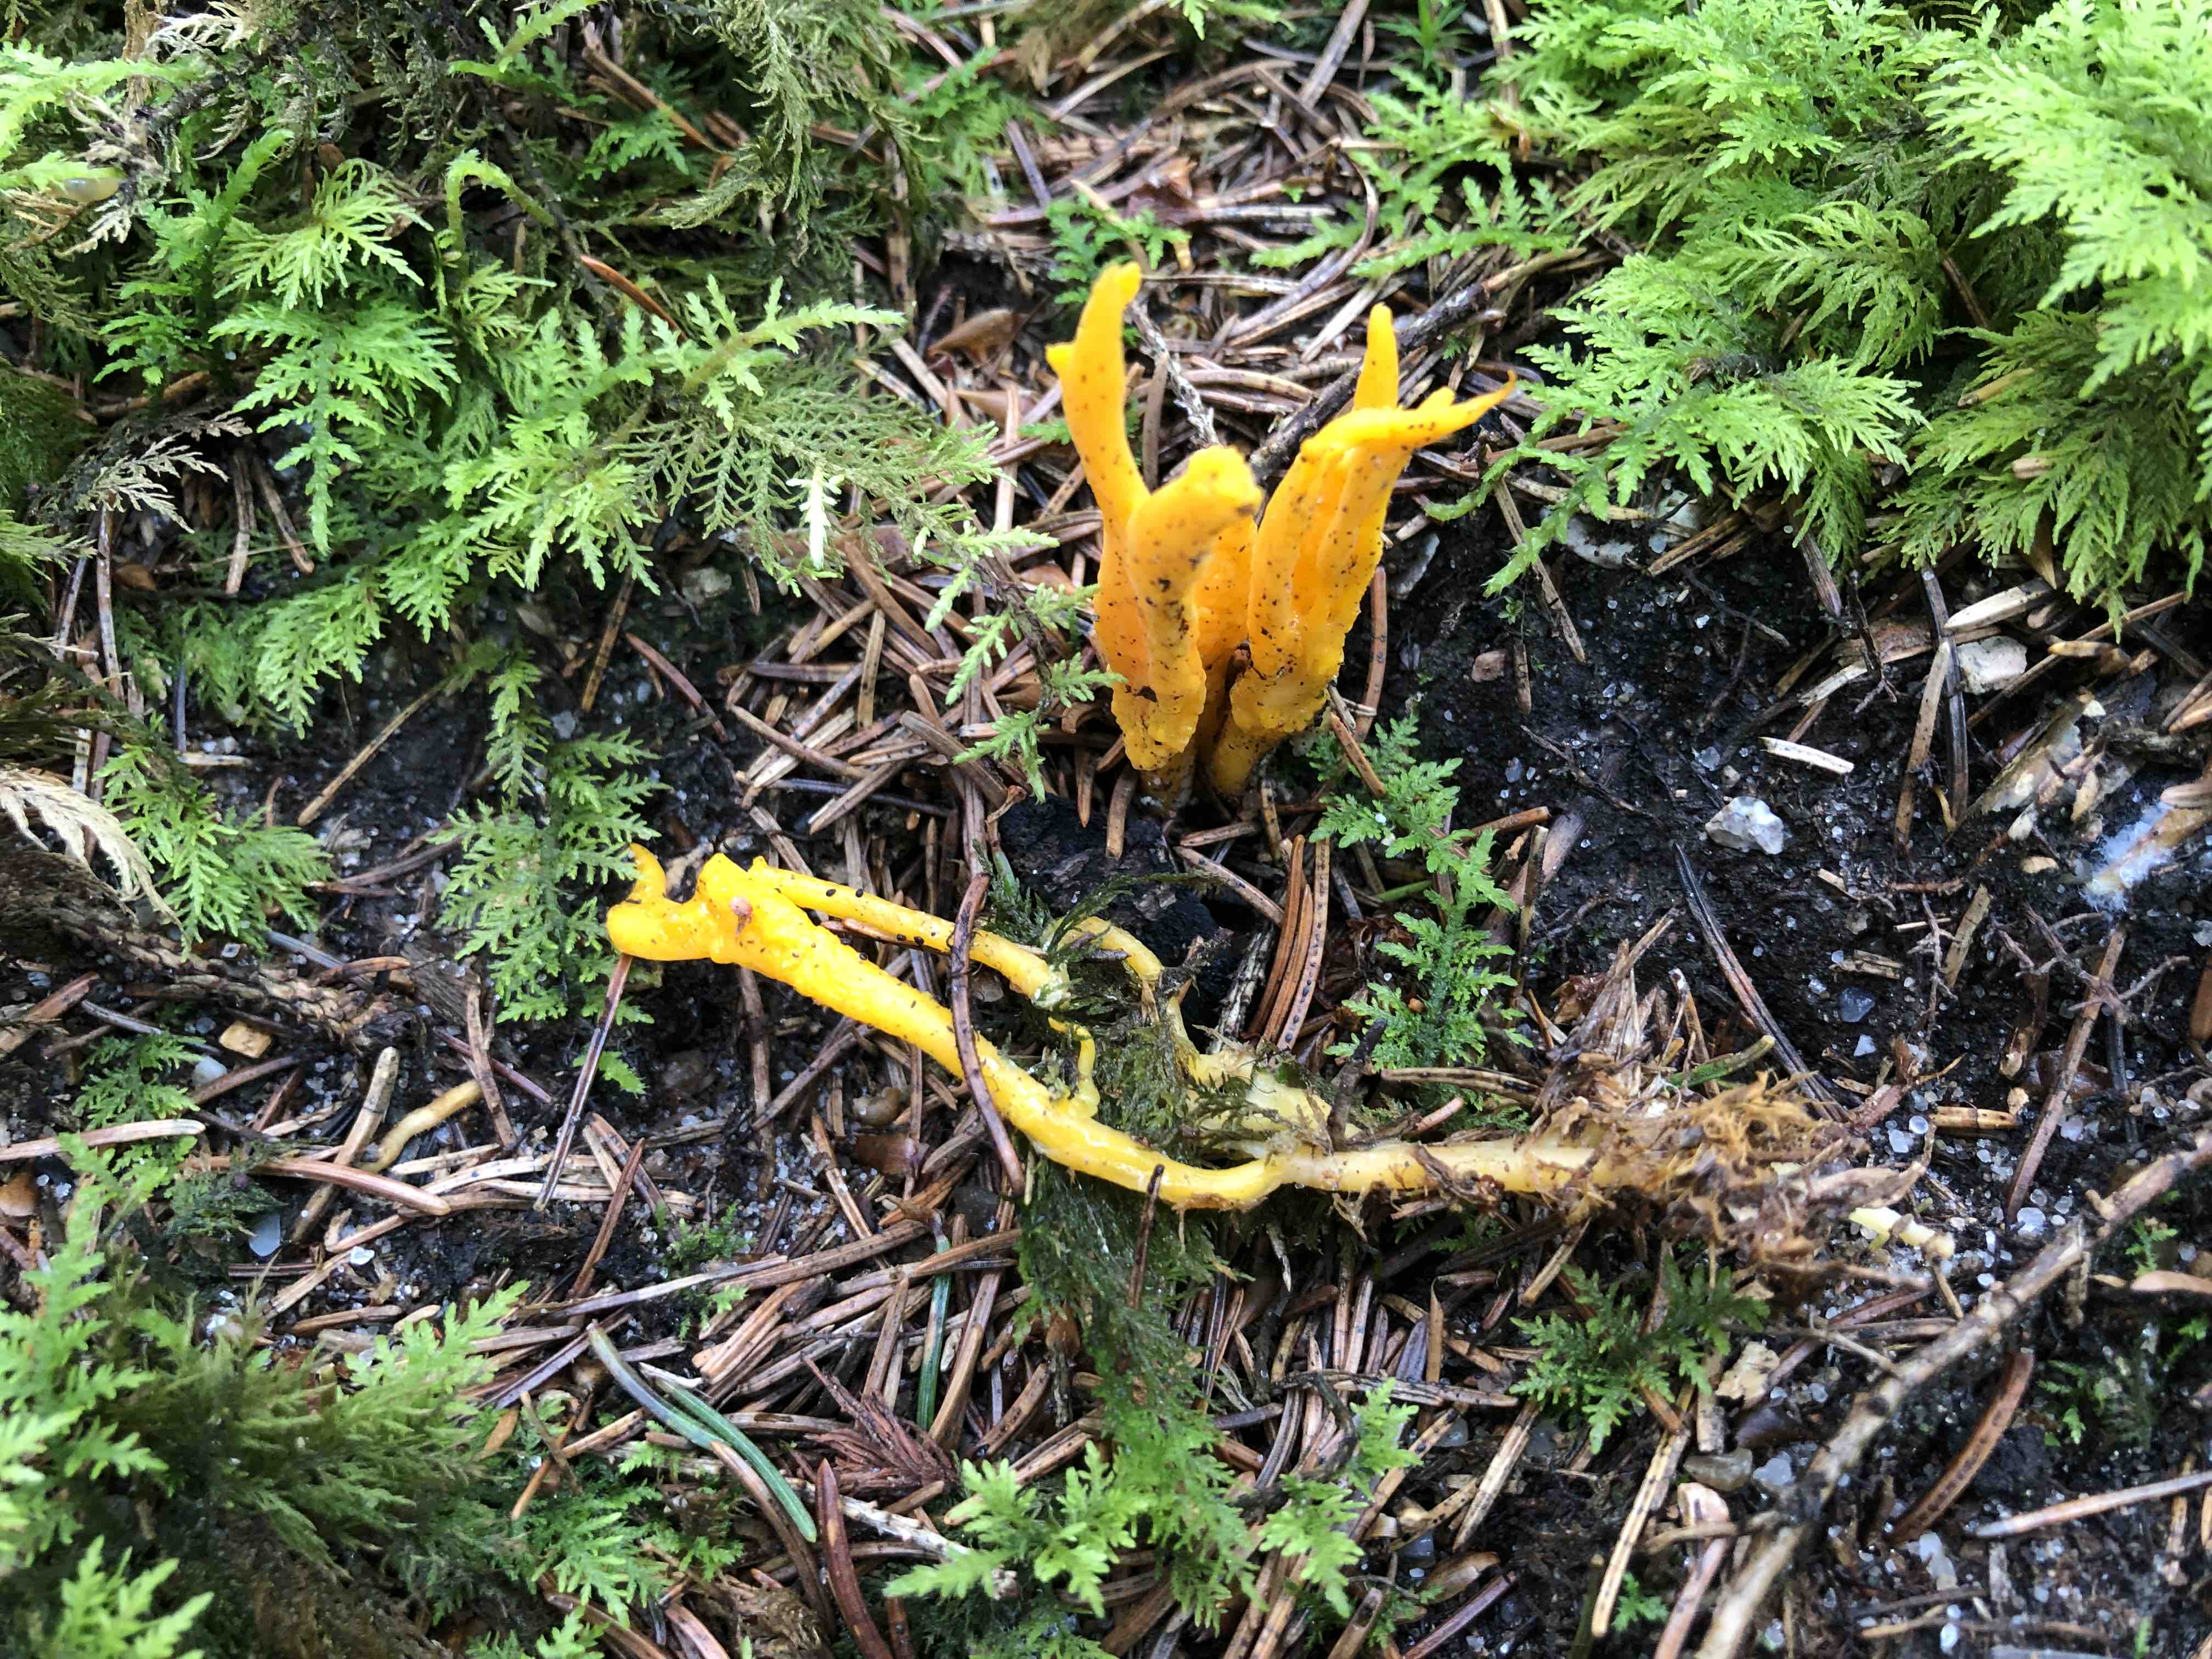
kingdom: Fungi
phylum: Basidiomycota
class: Dacrymycetes
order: Dacrymycetales
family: Dacrymycetaceae
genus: Calocera
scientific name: Calocera viscosa
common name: almindelig guldgaffel
